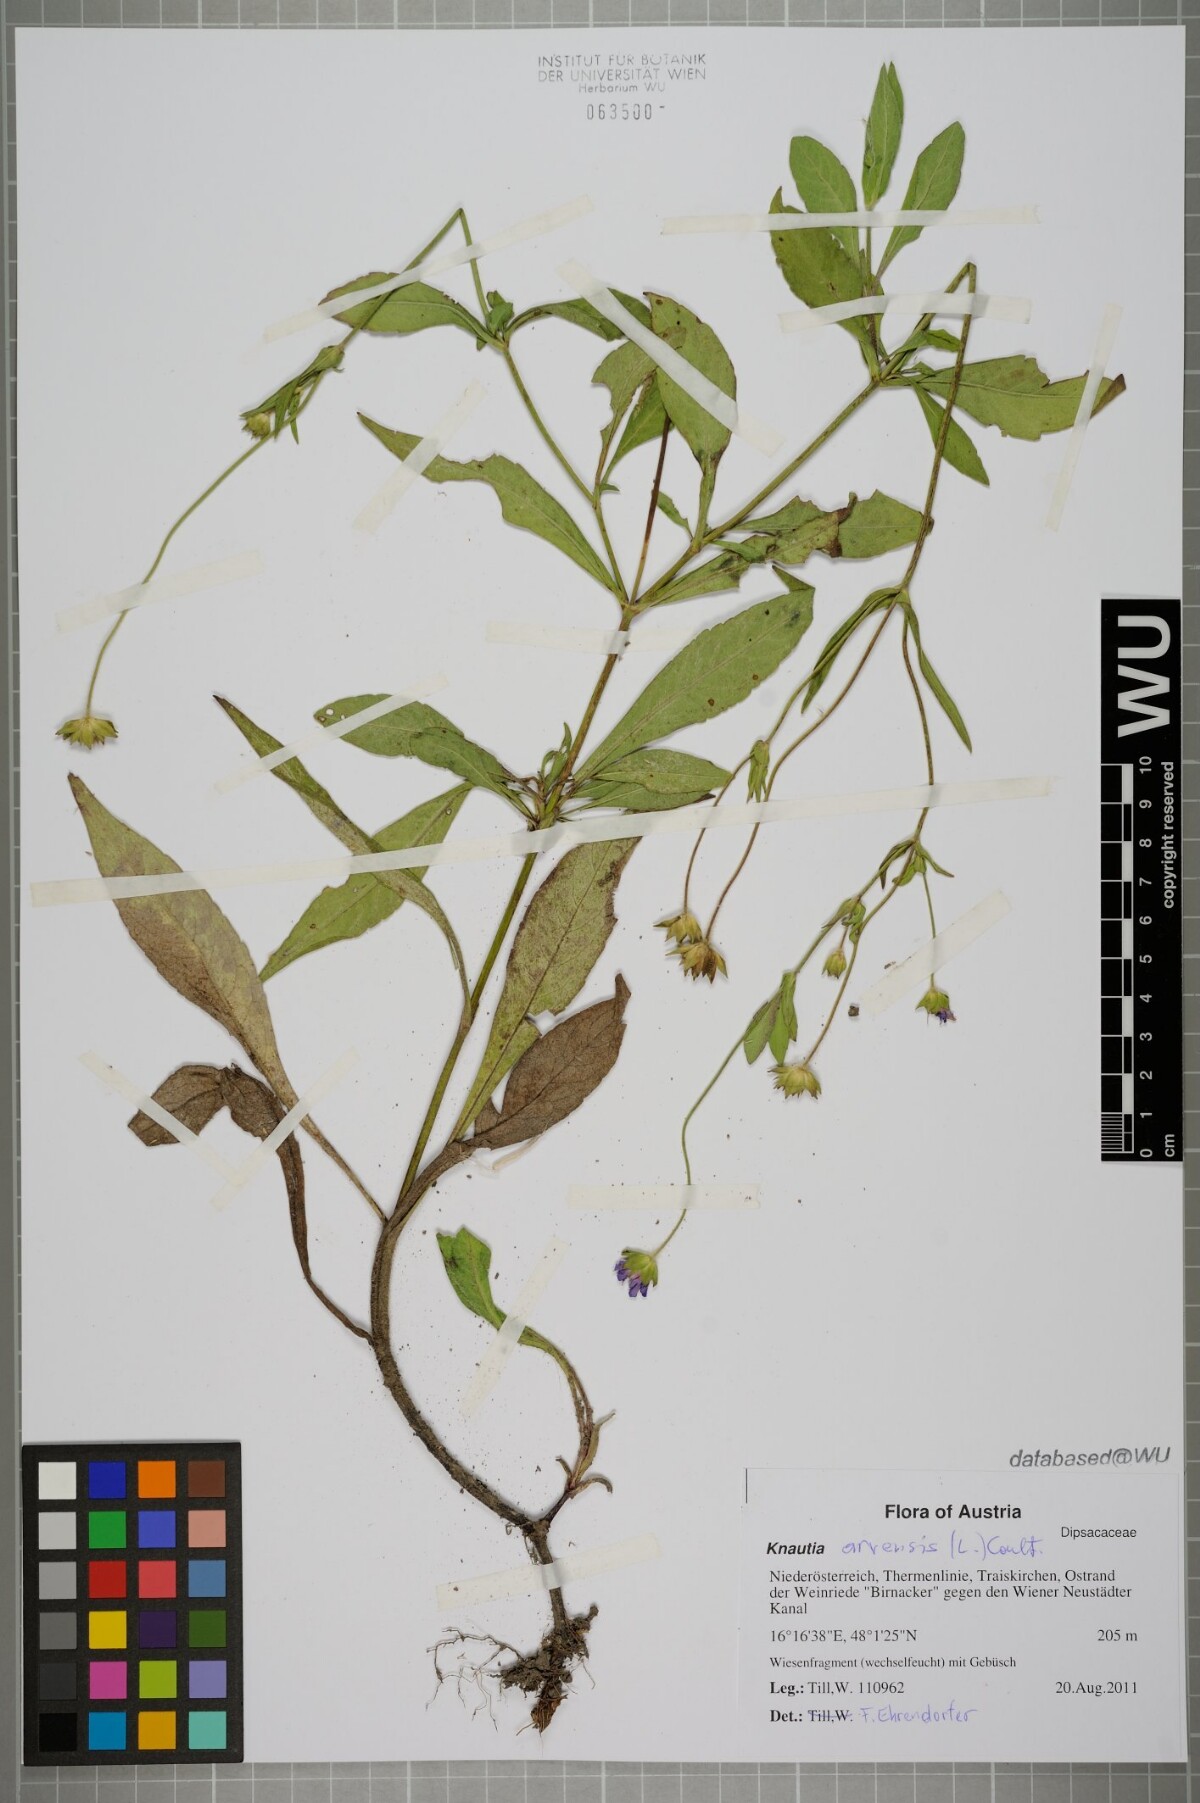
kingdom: Plantae
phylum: Tracheophyta
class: Magnoliopsida
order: Dipsacales
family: Caprifoliaceae
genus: Knautia
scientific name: Knautia arvensis
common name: Field scabiosa
